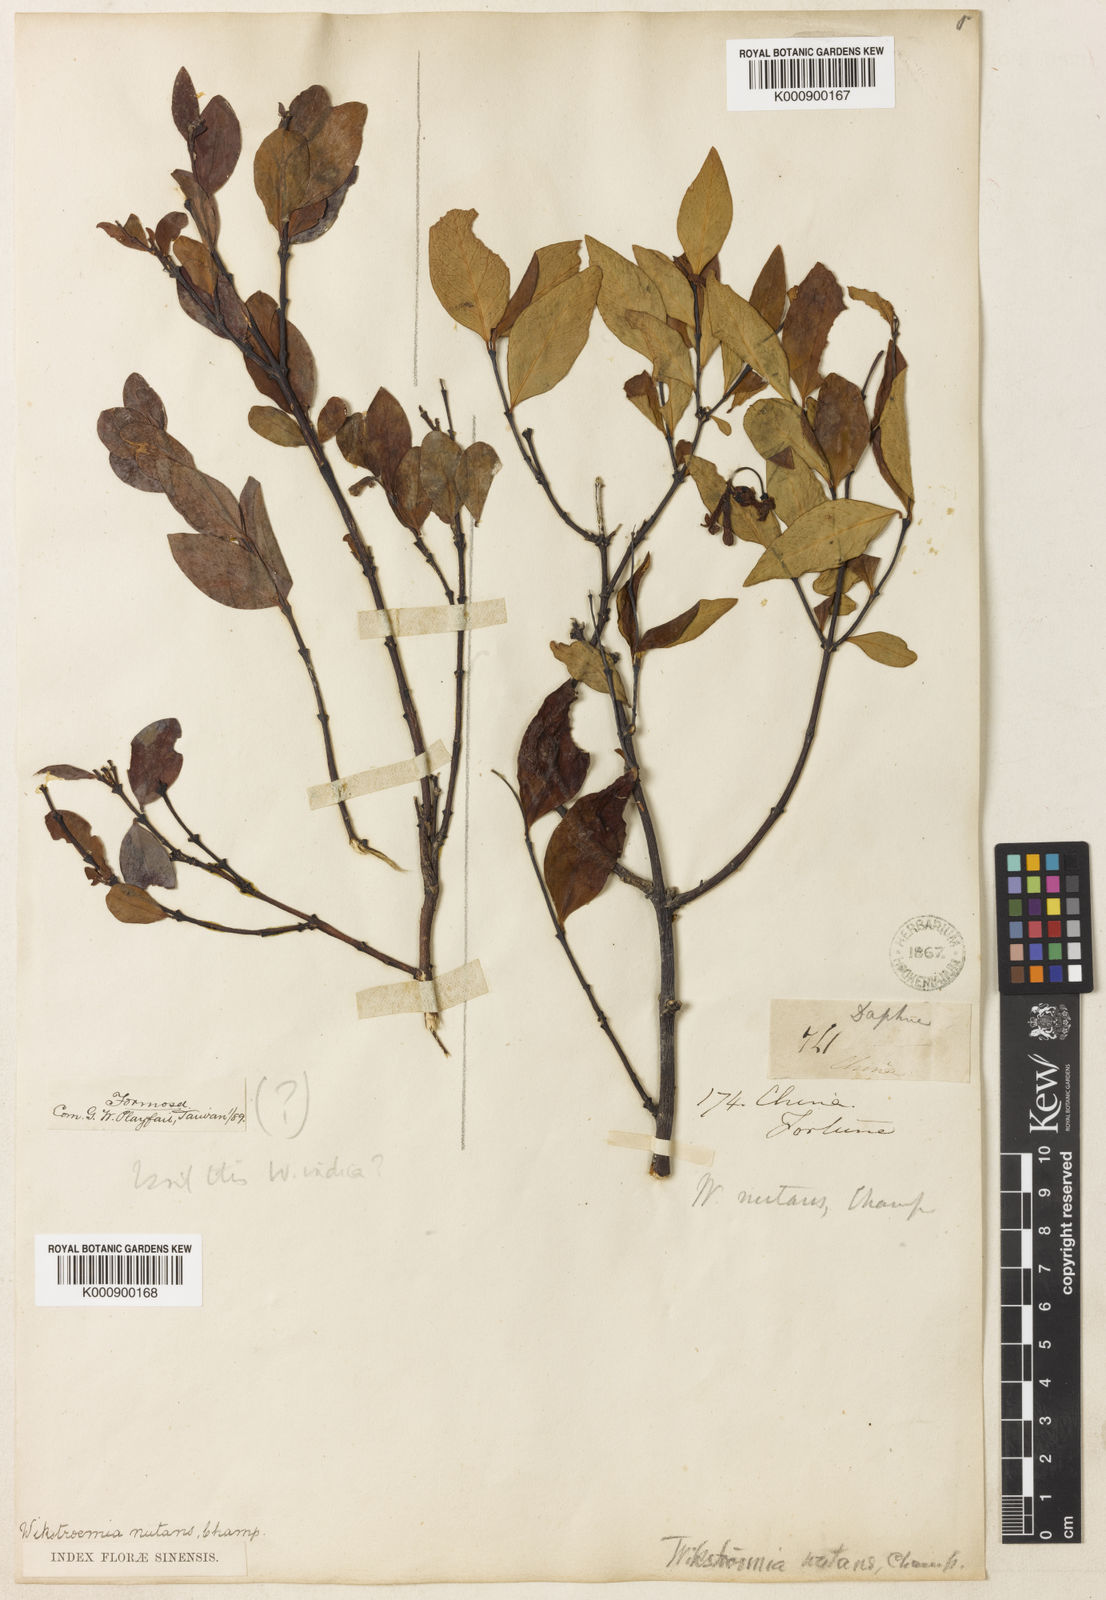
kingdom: Plantae
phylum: Tracheophyta
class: Magnoliopsida
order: Malvales
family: Thymelaeaceae
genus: Wikstroemia
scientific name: Wikstroemia nutans
